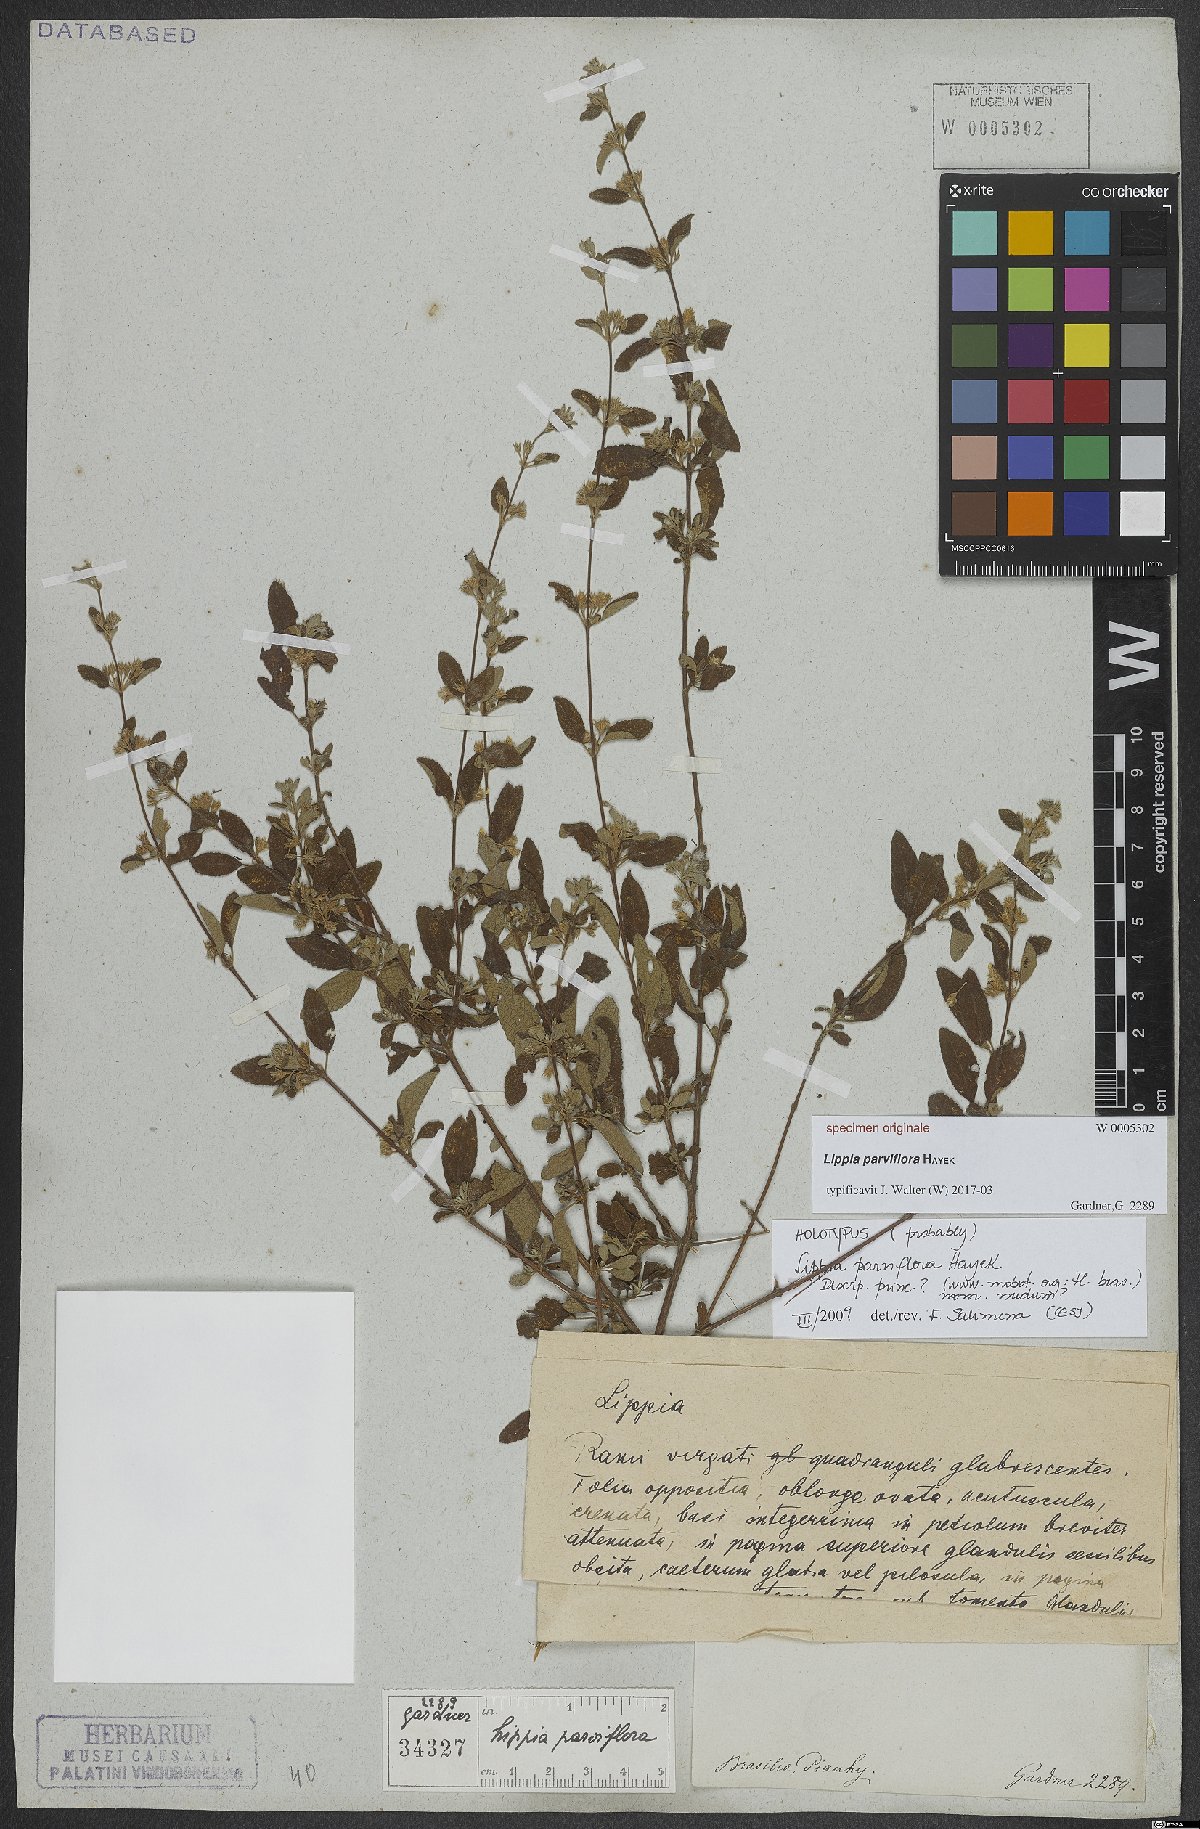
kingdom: Plantae
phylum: Tracheophyta
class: Magnoliopsida
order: Lamiales
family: Verbenaceae
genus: Lippia
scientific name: Lippia
